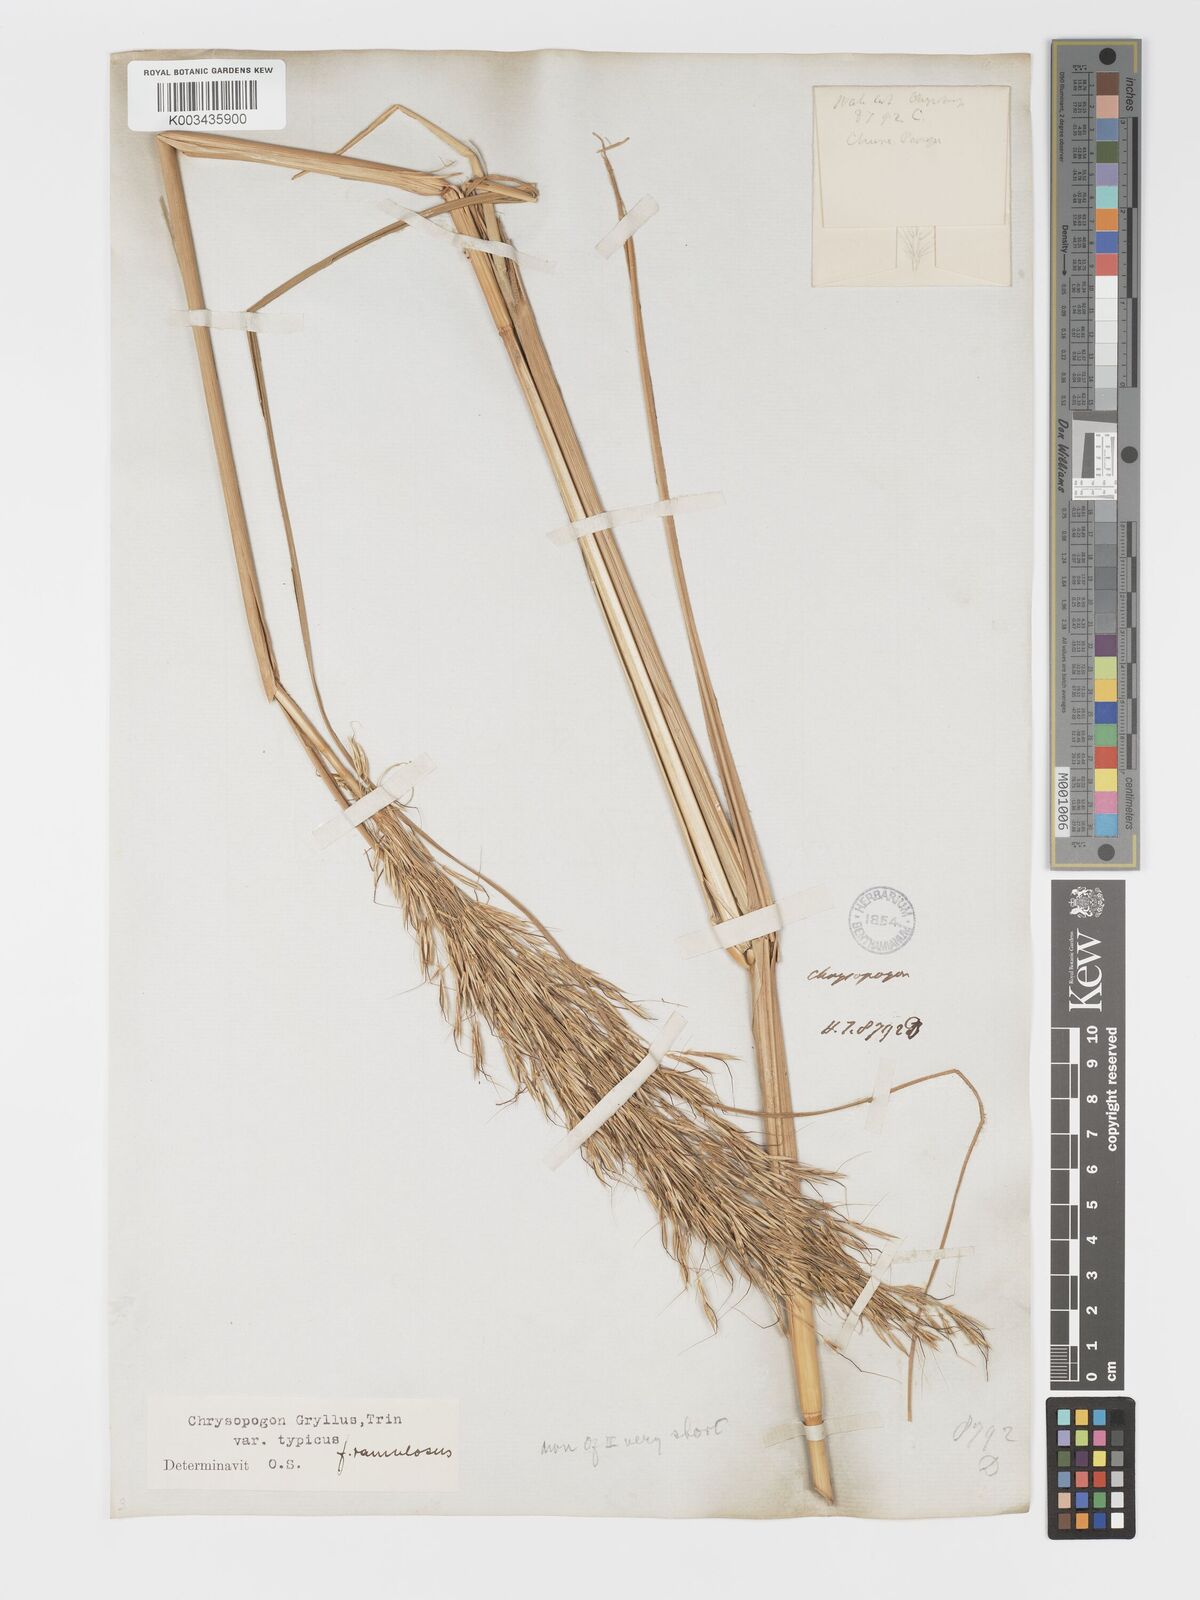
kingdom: Plantae
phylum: Tracheophyta
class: Liliopsida
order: Poales
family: Poaceae
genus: Chrysopogon
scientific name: Chrysopogon gryllus
